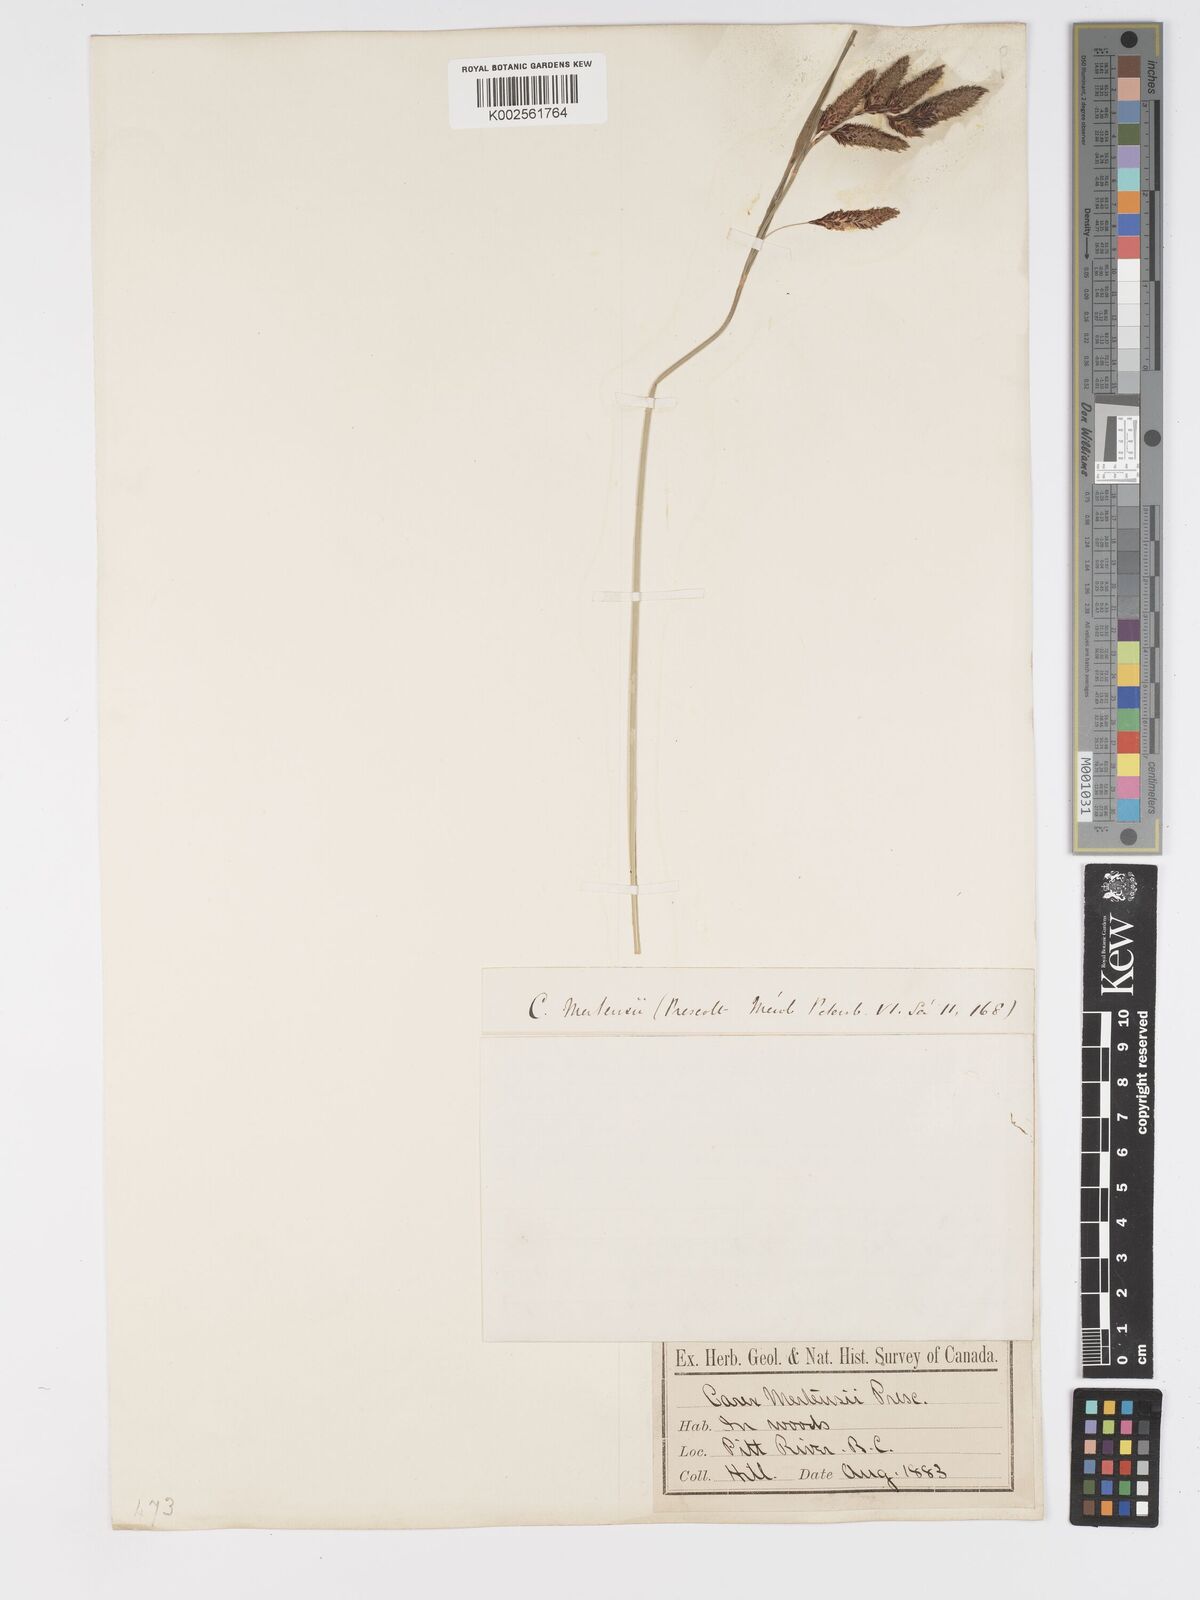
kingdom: Plantae
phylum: Tracheophyta
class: Liliopsida
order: Poales
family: Cyperaceae
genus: Carex
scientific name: Carex mertensii
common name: Mertens' sedge
